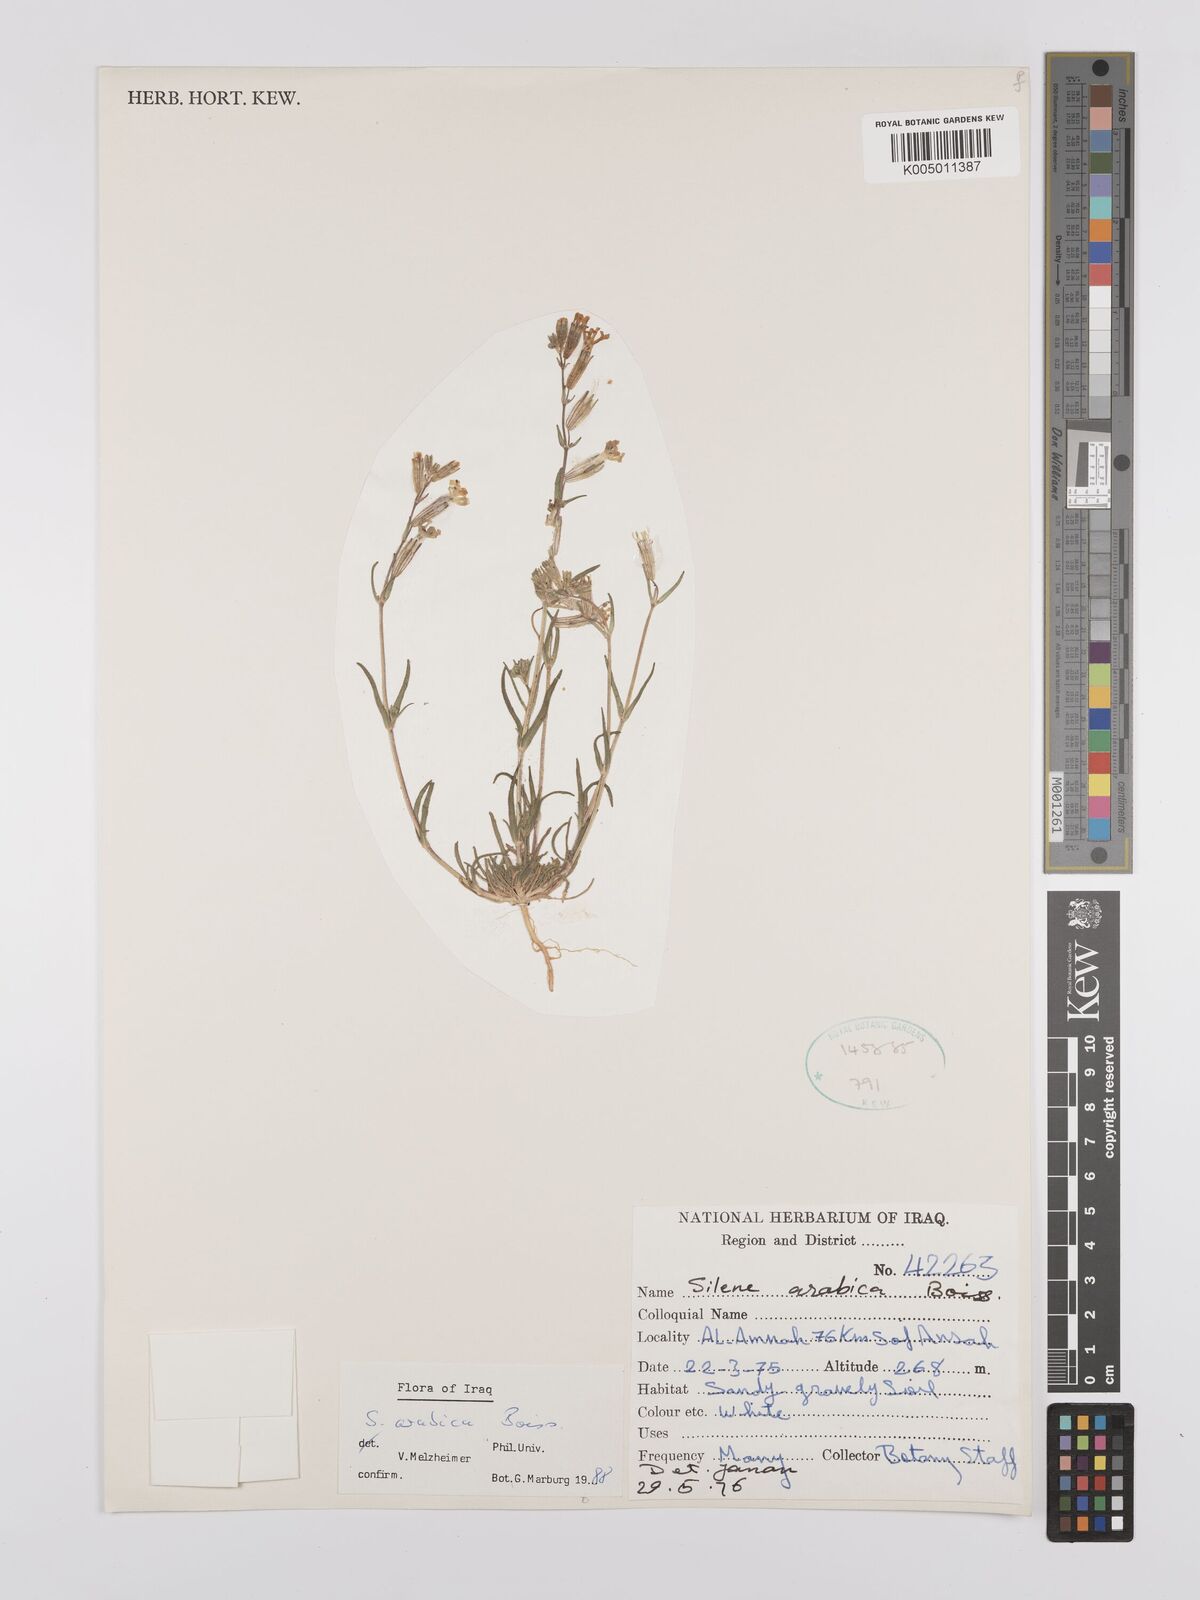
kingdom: Plantae
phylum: Tracheophyta
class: Magnoliopsida
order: Caryophyllales
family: Caryophyllaceae
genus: Silene
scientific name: Silene arabica
